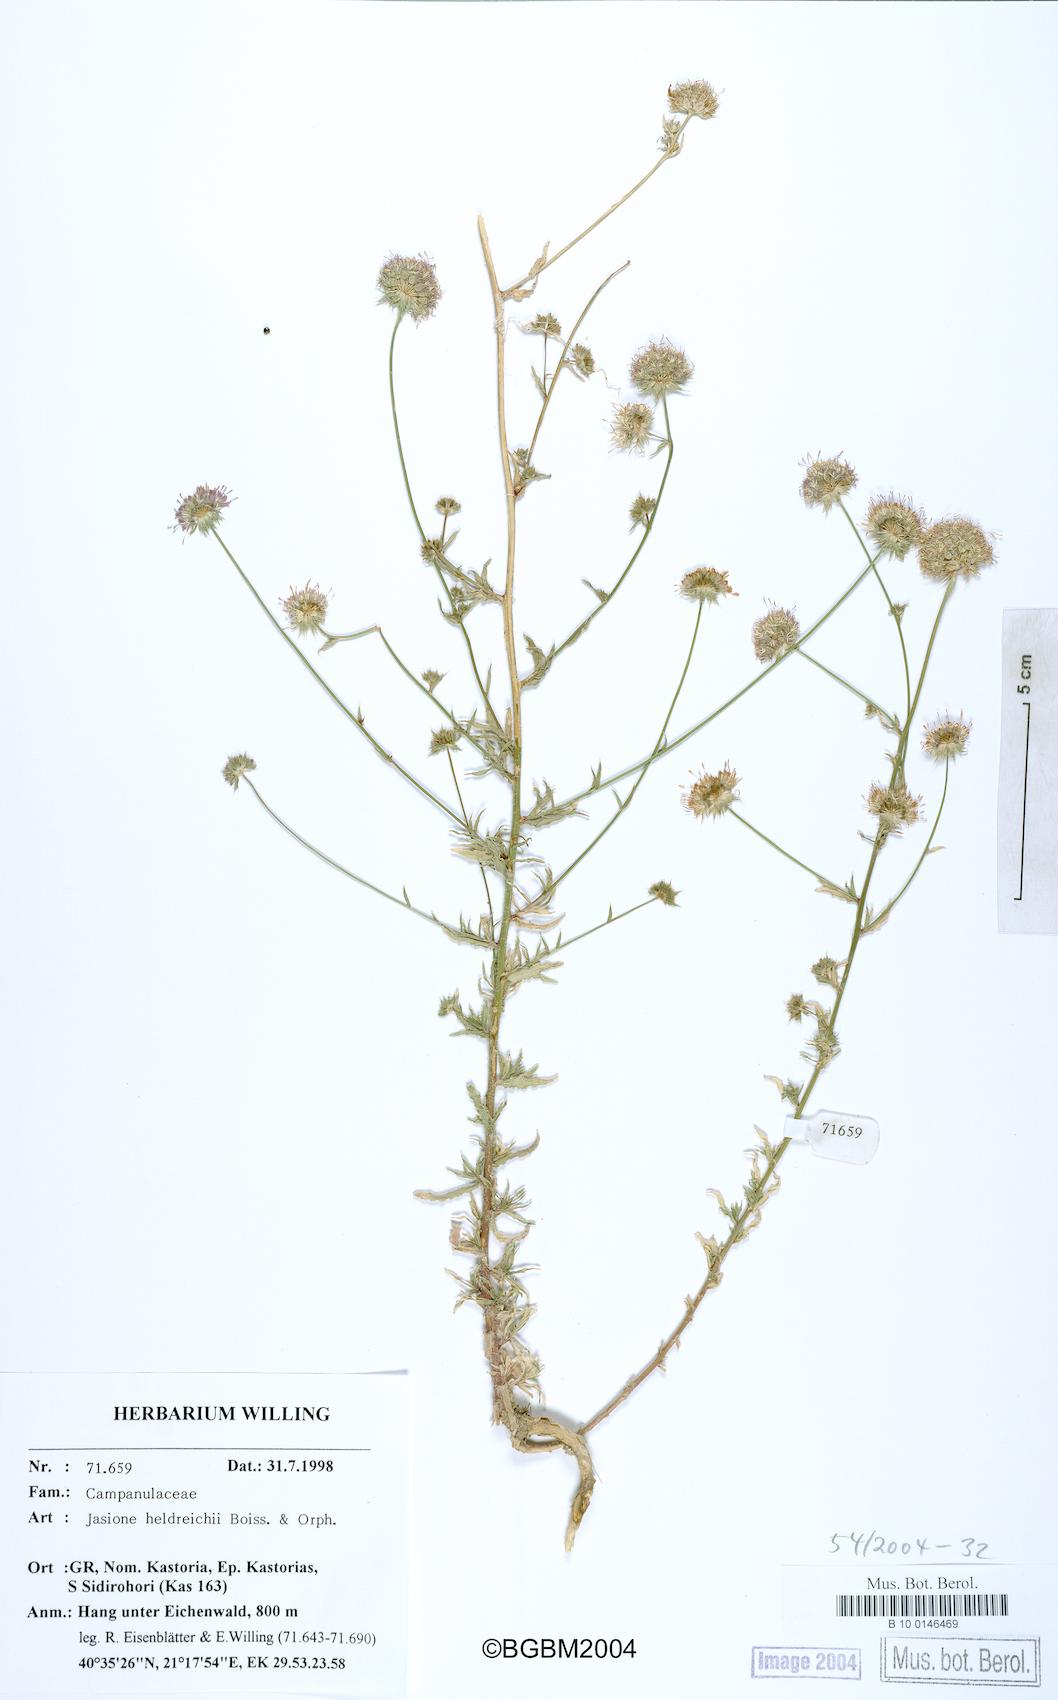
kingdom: Plantae
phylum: Tracheophyta
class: Magnoliopsida
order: Asterales
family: Campanulaceae
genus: Jasione
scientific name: Jasione heldreichii
